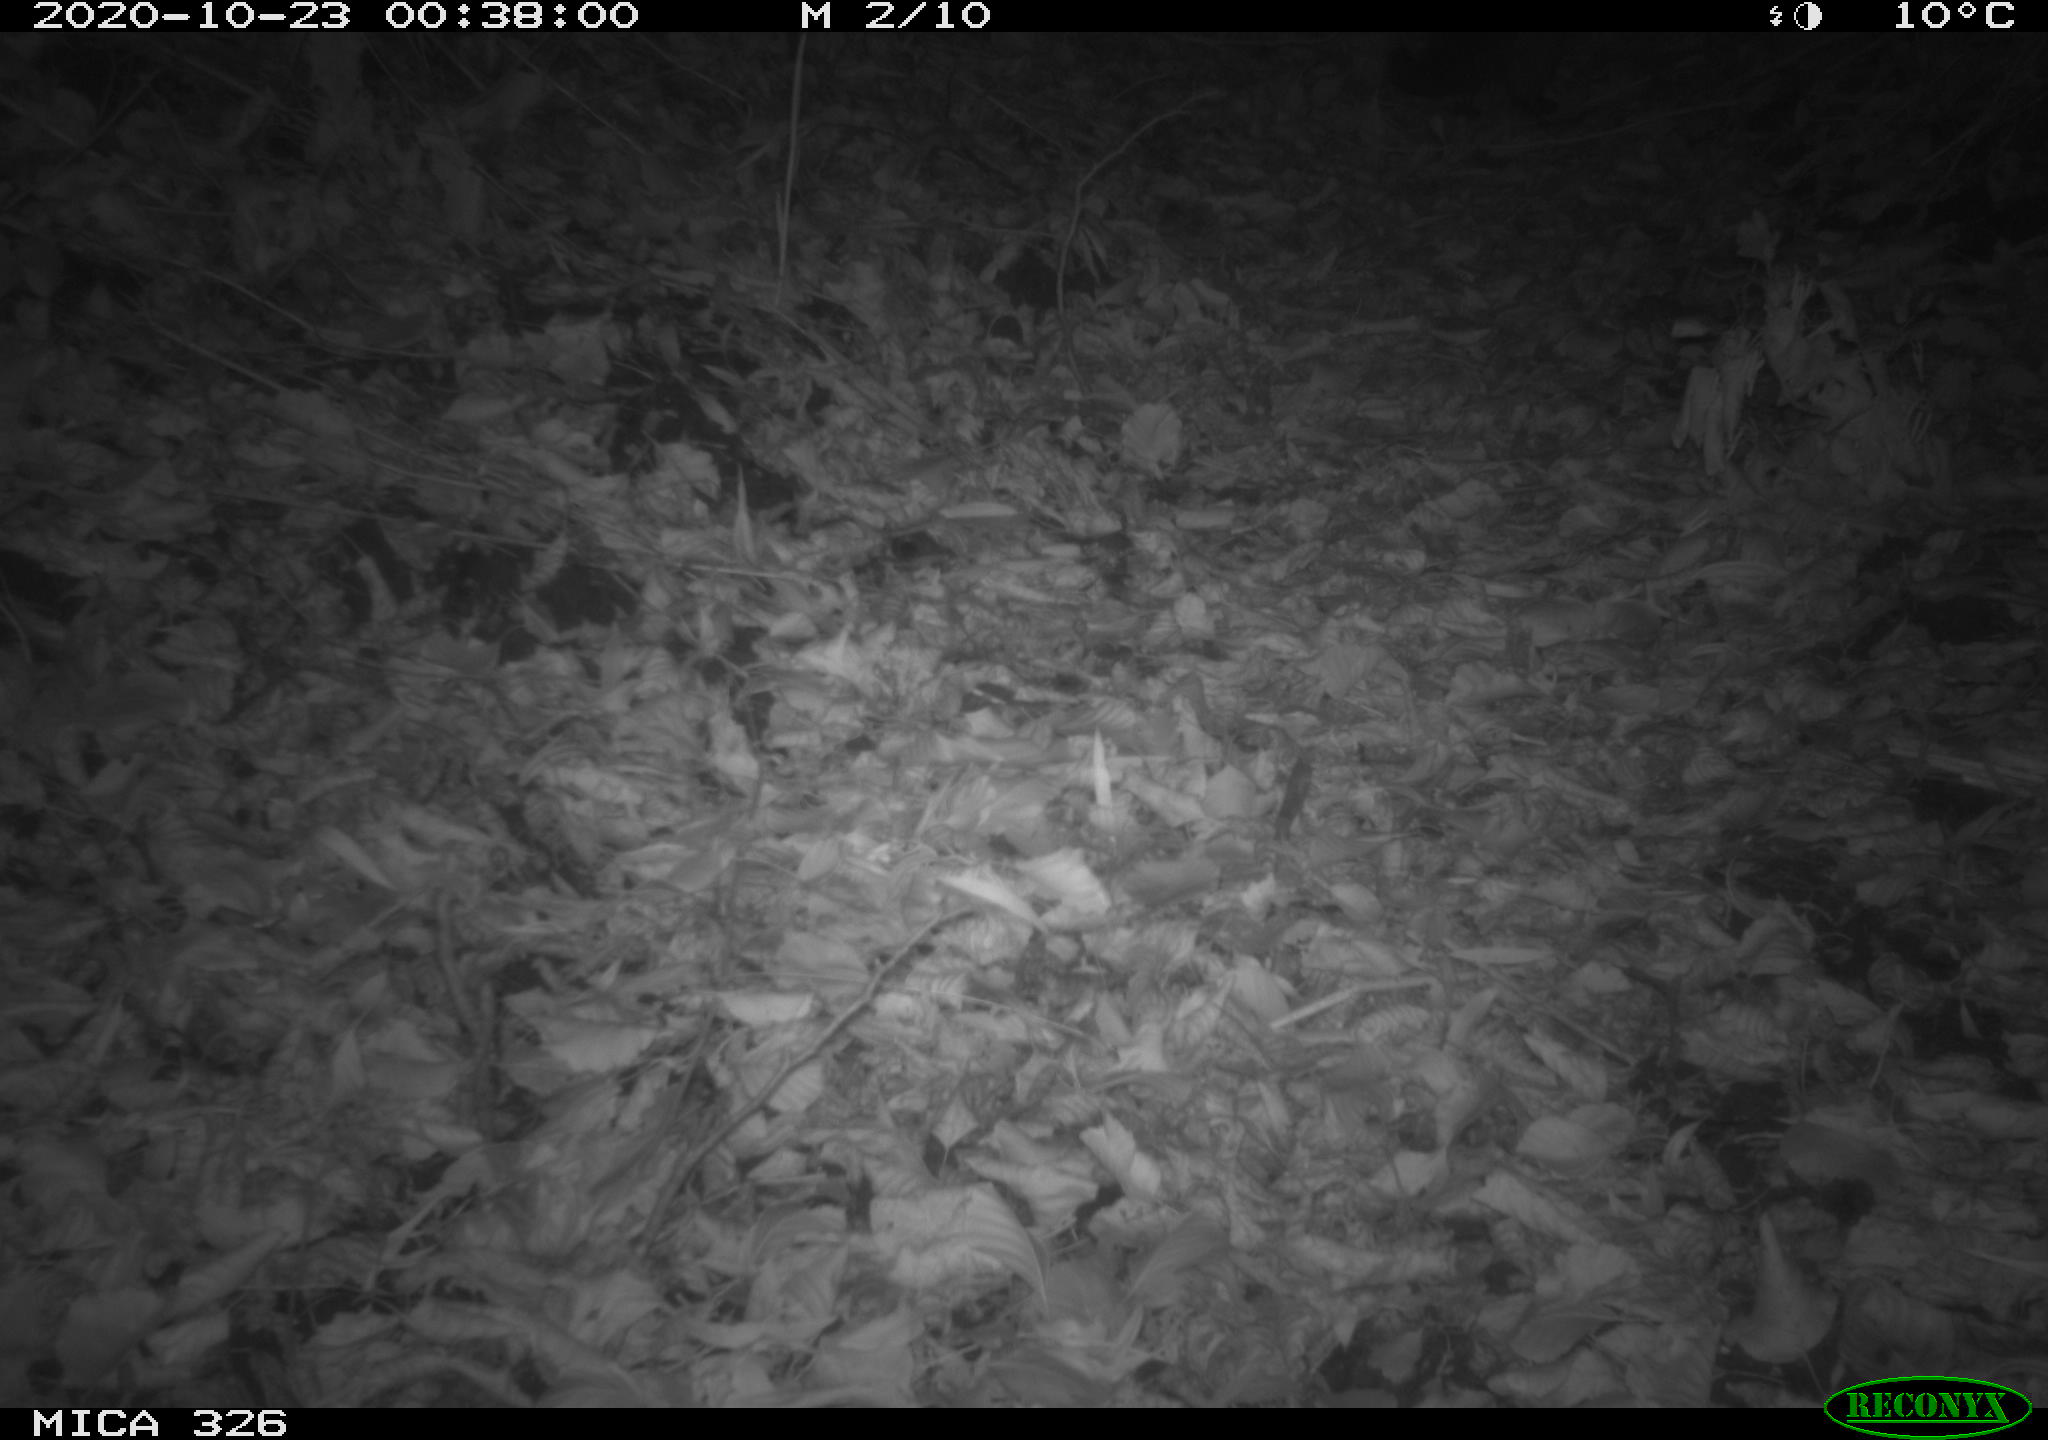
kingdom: Animalia
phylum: Chordata
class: Mammalia
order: Carnivora
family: Mustelidae
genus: Lutra
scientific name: Lutra lutra
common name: European otter
